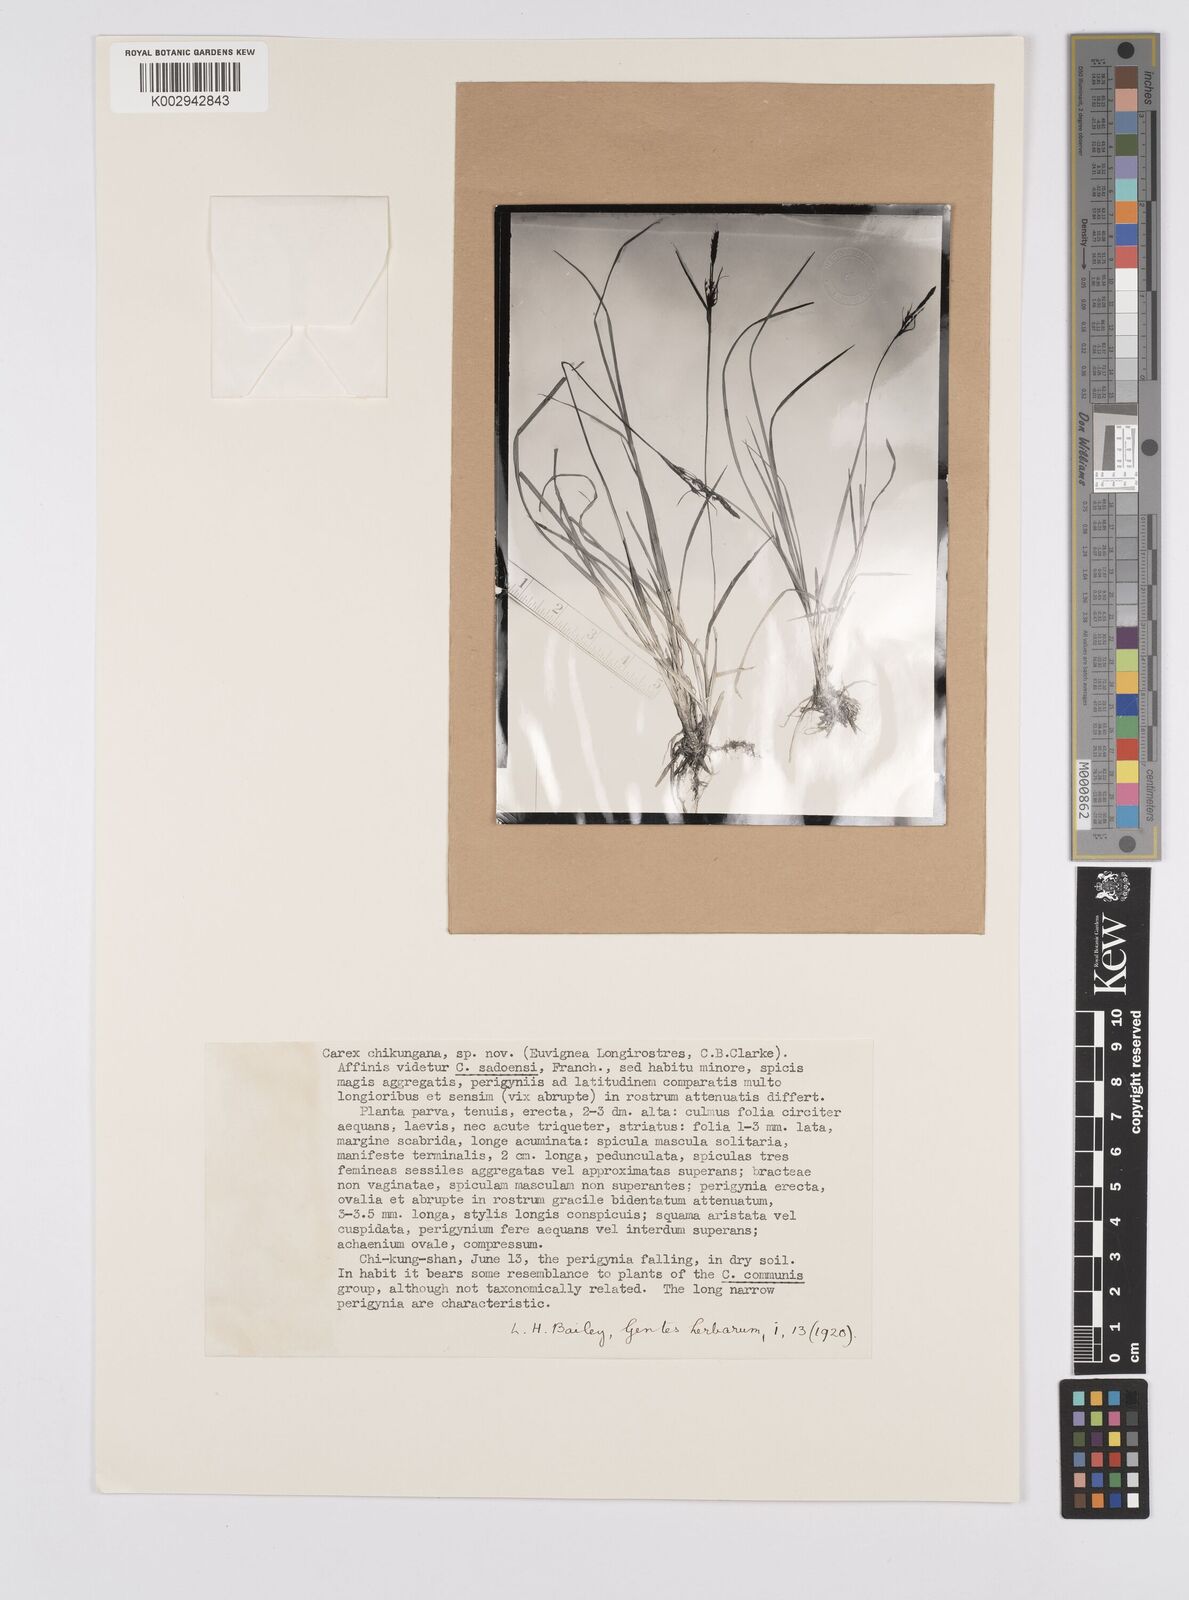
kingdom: Plantae
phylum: Tracheophyta
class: Liliopsida
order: Poales
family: Cyperaceae
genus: Carex
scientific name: Carex chikungana
